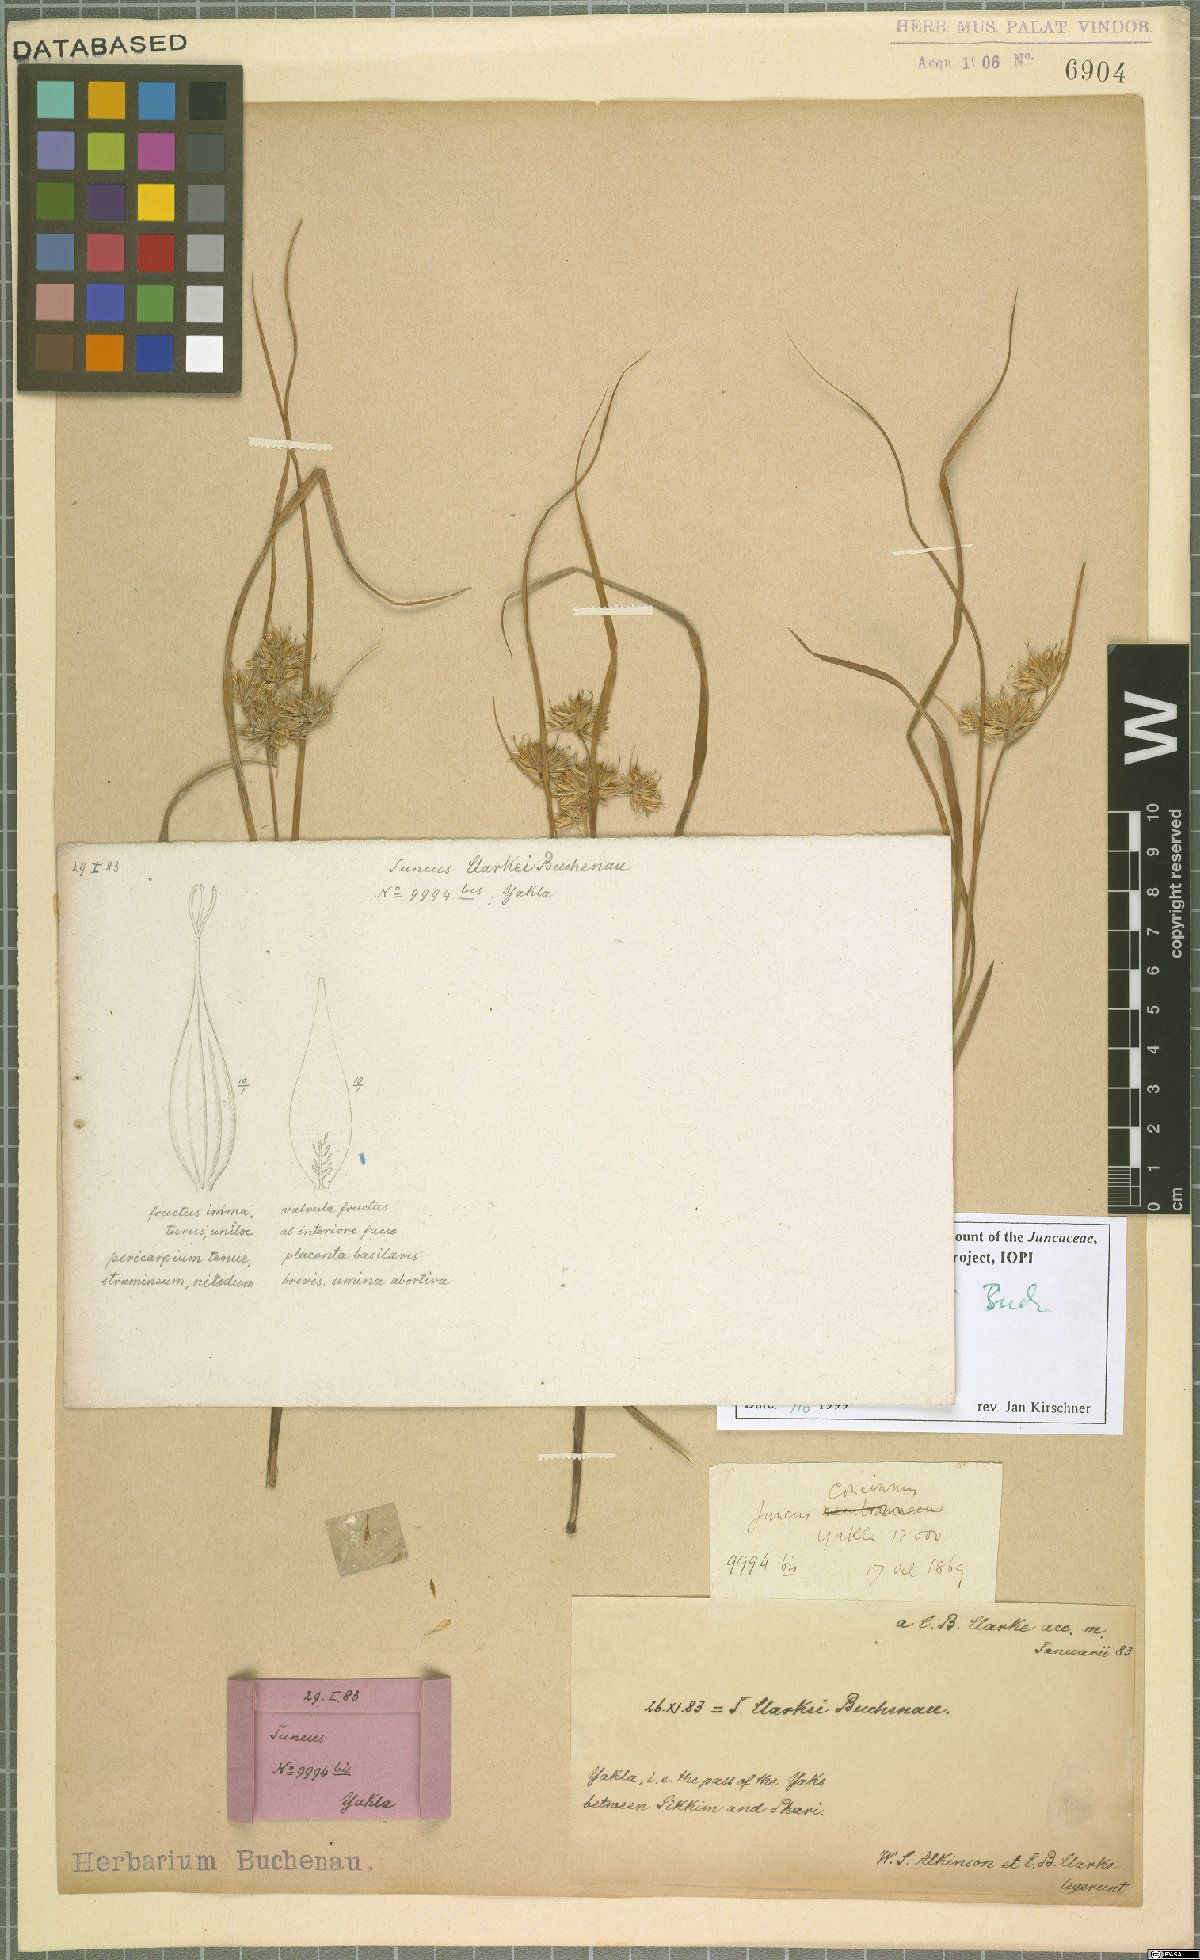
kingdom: Plantae
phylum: Tracheophyta
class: Liliopsida
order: Poales
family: Juncaceae
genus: Juncus
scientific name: Juncus clarkei
